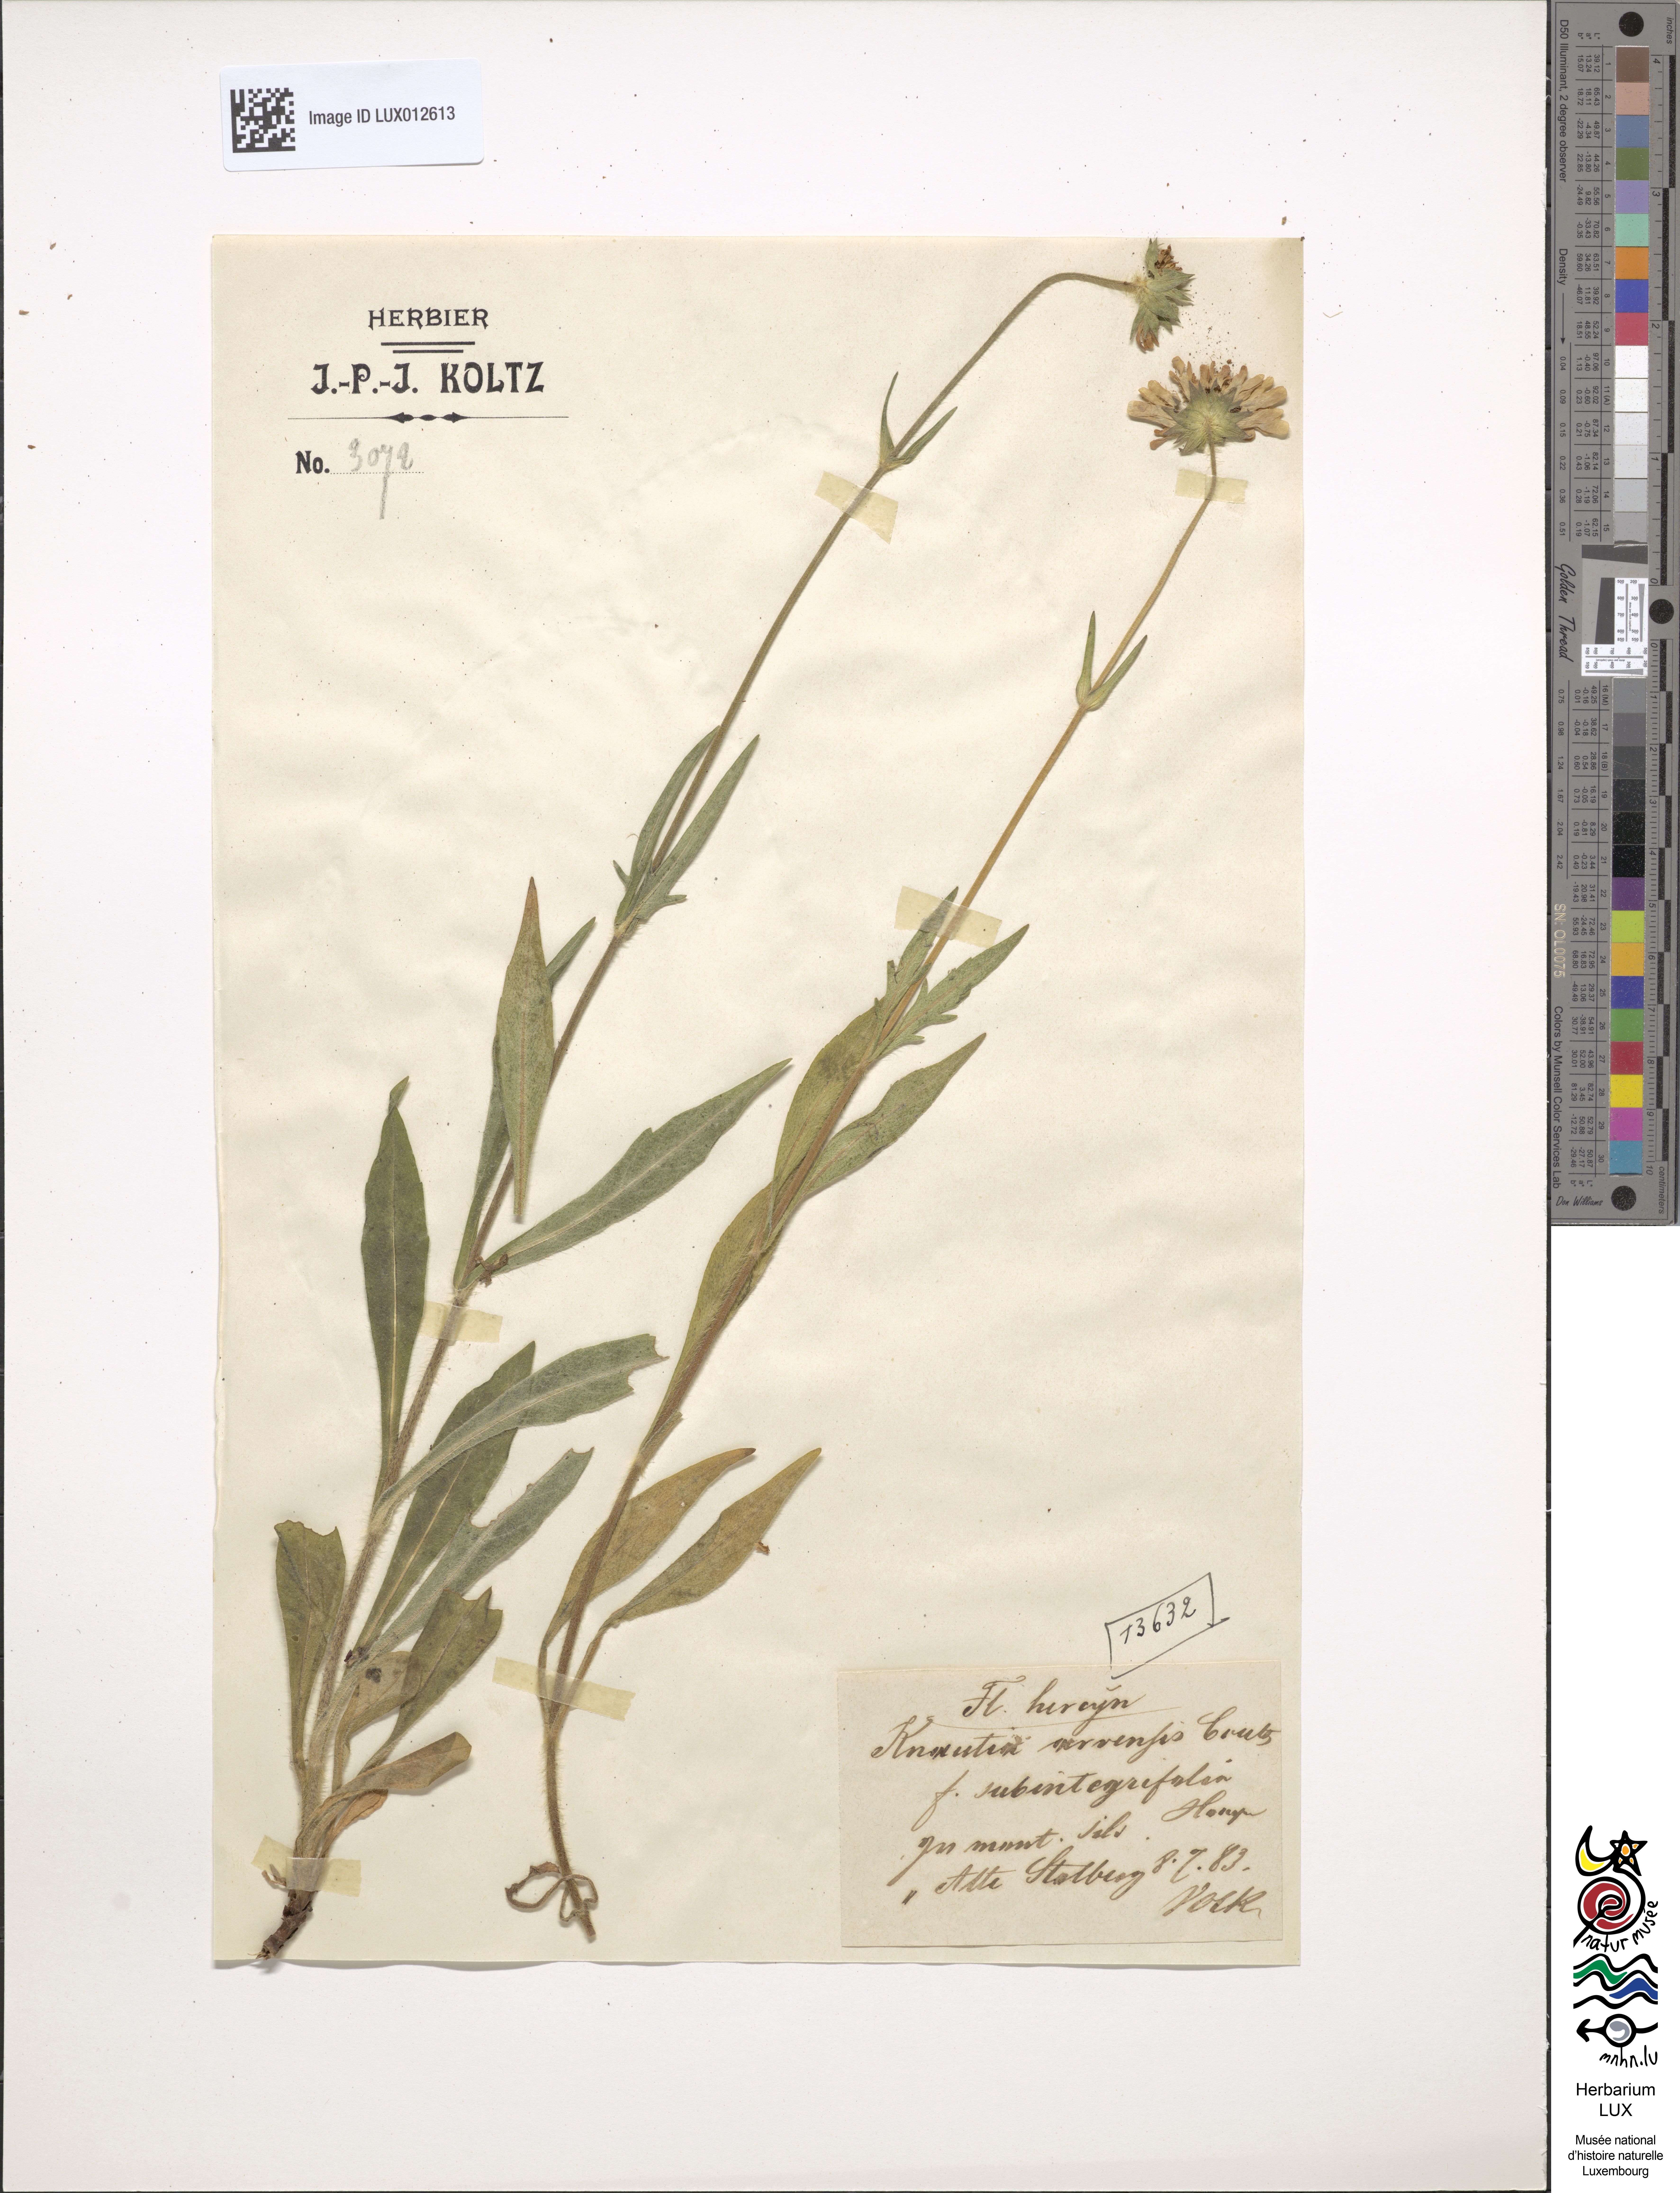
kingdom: Plantae
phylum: Tracheophyta
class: Magnoliopsida
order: Dipsacales
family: Caprifoliaceae
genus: Knautia
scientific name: Knautia arvensis
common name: Field scabiosa
